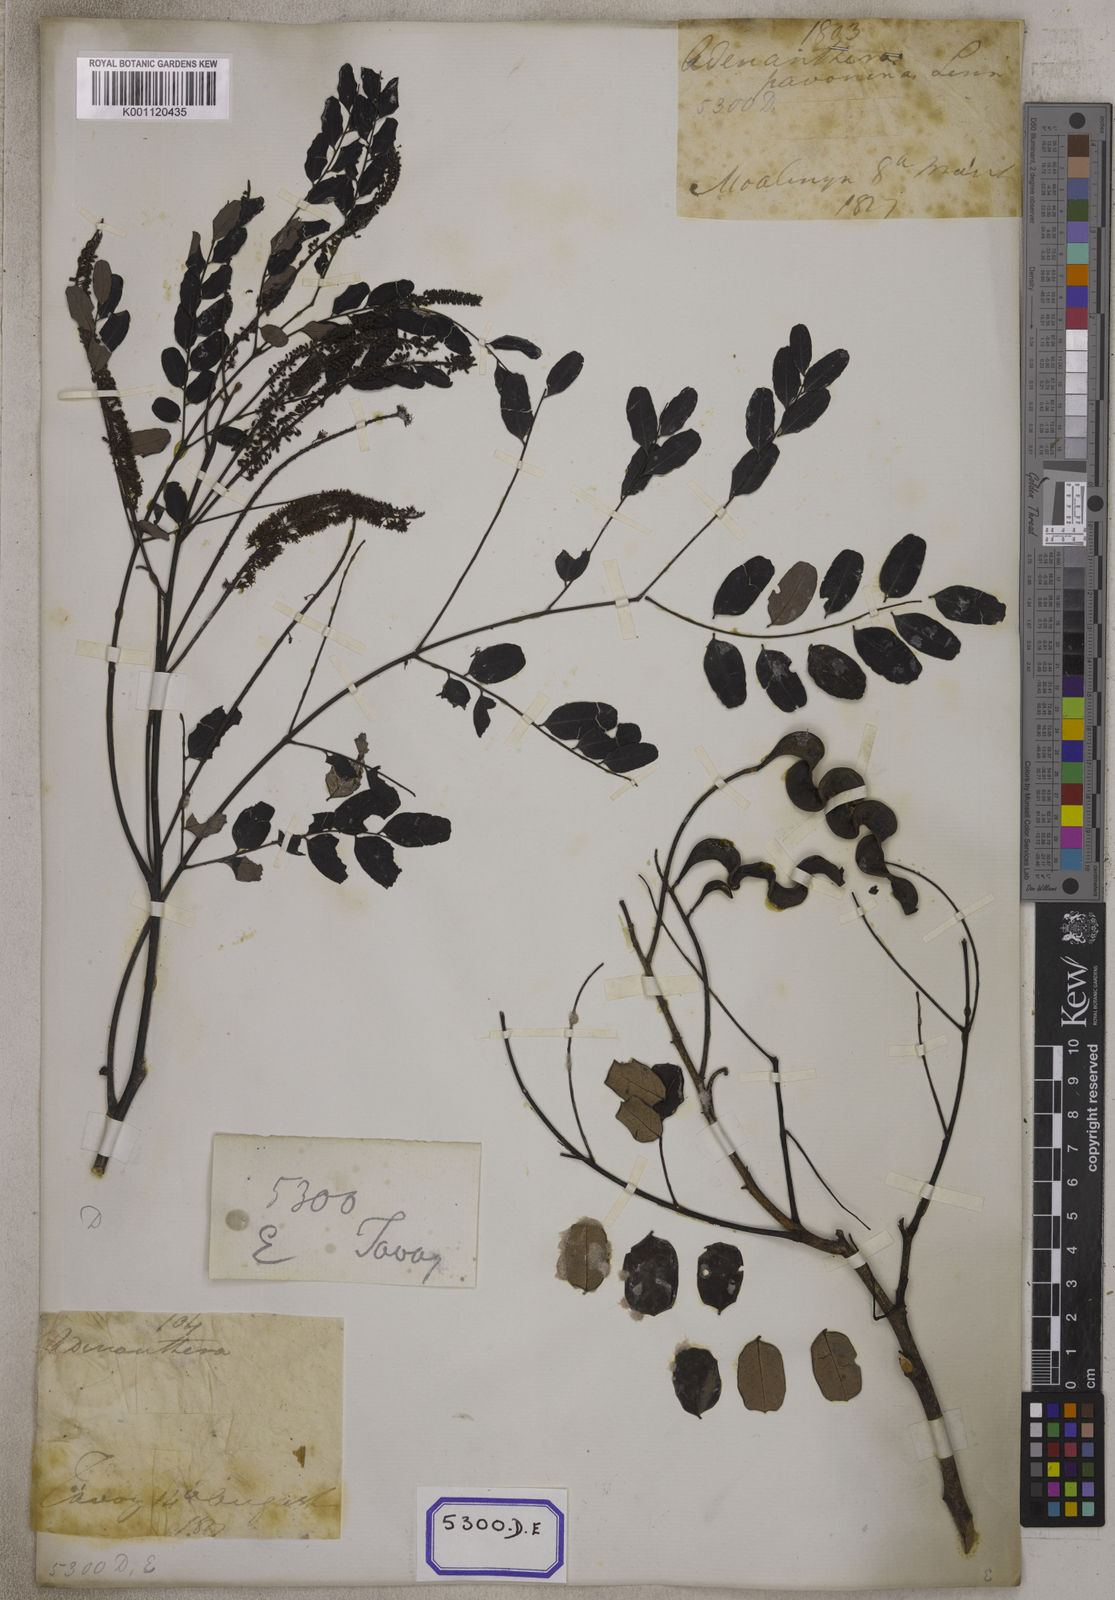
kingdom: Plantae
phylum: Tracheophyta
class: Magnoliopsida
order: Fabales
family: Fabaceae
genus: Adenanthera
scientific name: Adenanthera pavonina
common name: Red beadtree
